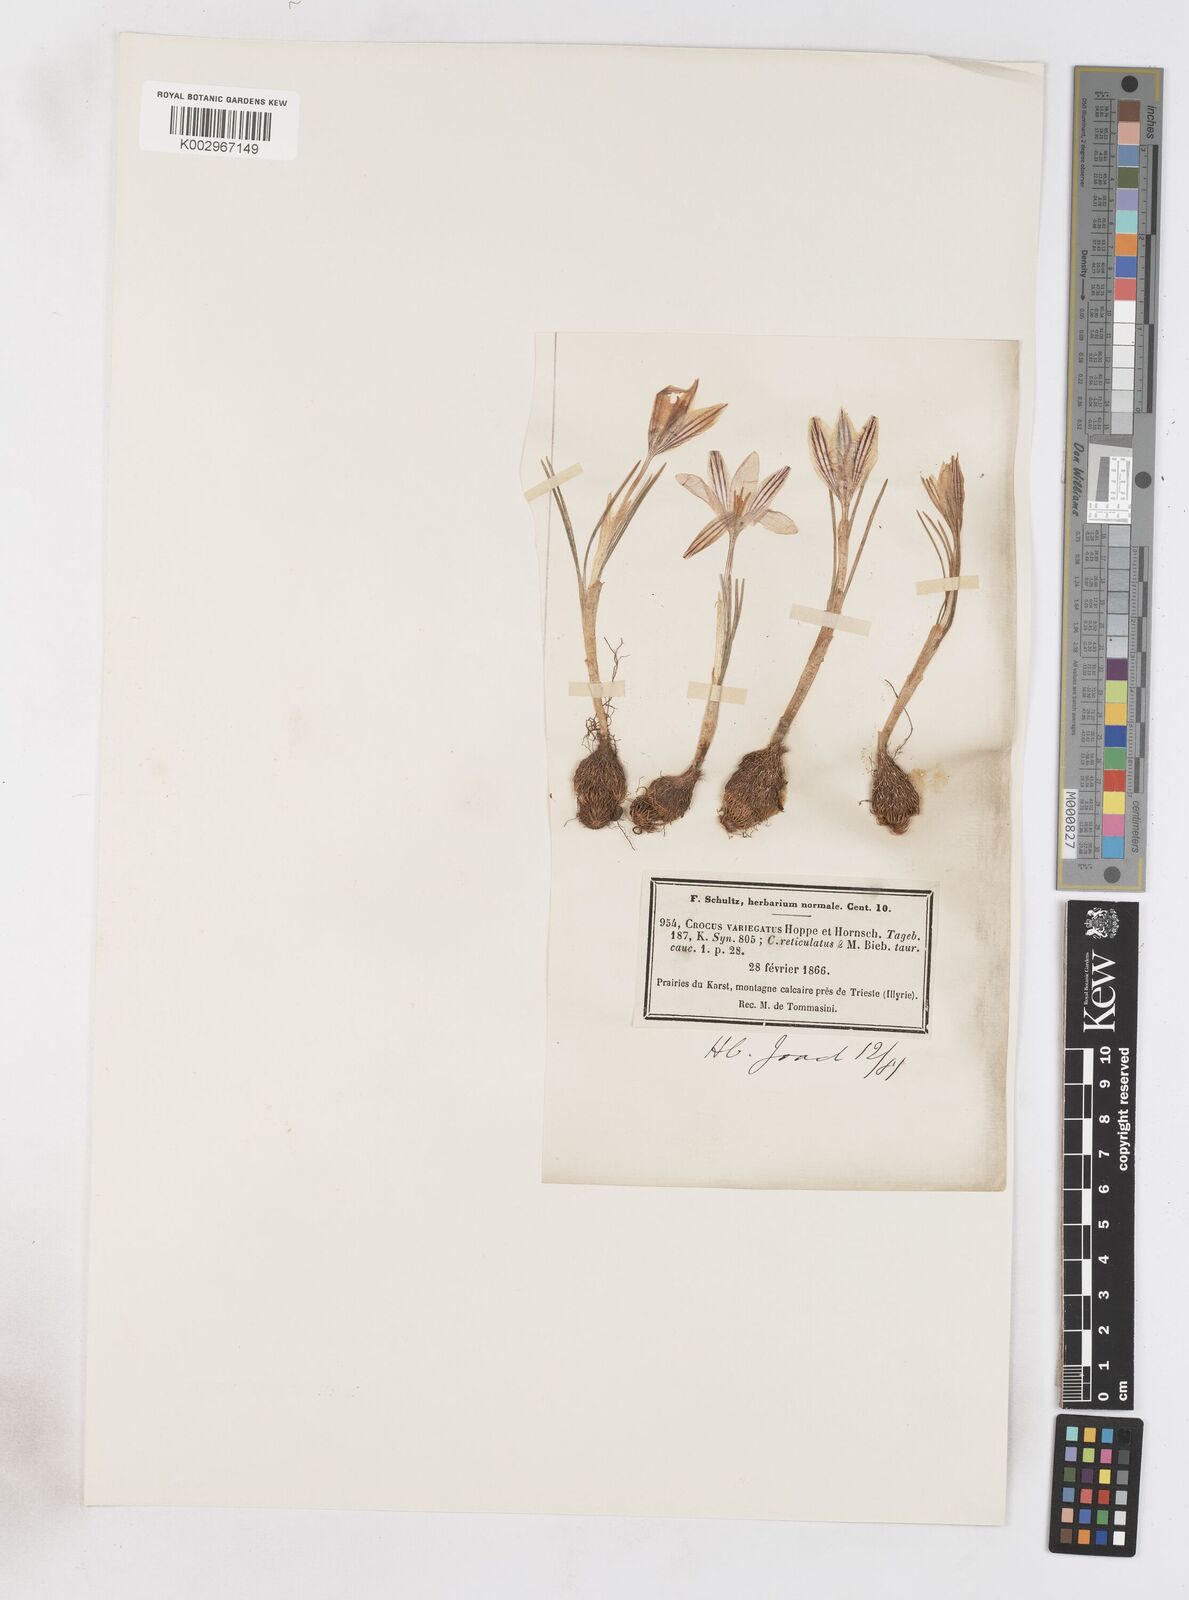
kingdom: Plantae
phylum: Tracheophyta
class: Liliopsida
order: Asparagales
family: Iridaceae
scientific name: Iridaceae
